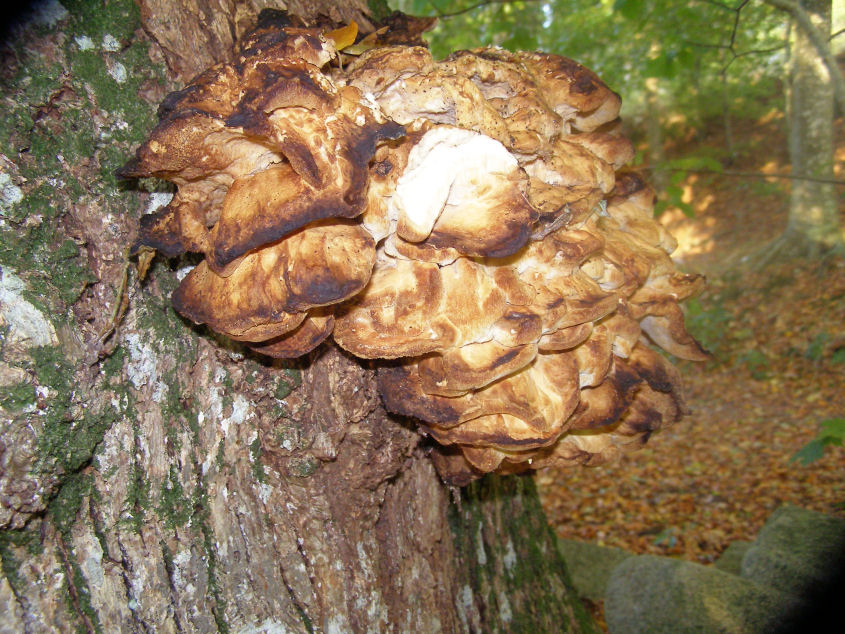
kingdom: Fungi
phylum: Basidiomycota
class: Agaricomycetes
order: Polyporales
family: Grifolaceae
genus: Grifola
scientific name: Grifola frondosa
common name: tueporesvamp
